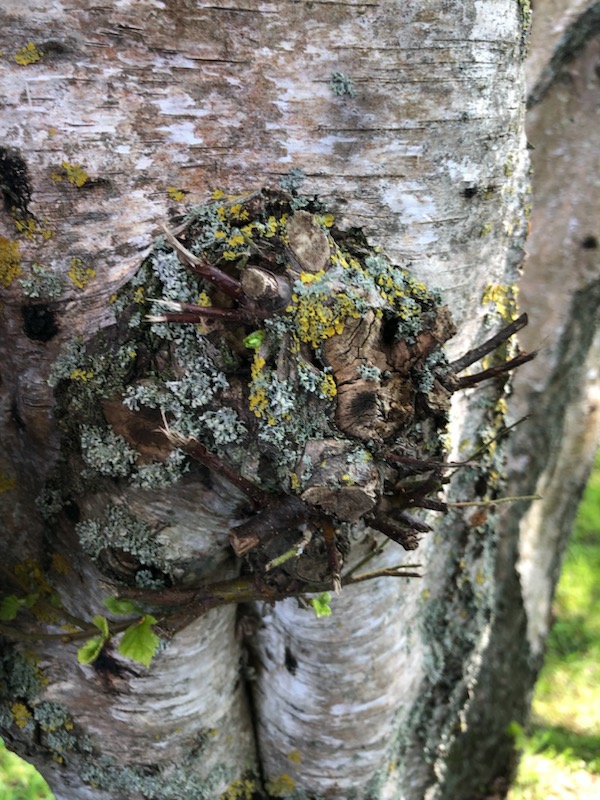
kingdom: Fungi
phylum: Ascomycota
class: Lecanoromycetes
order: Caliciales
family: Physciaceae
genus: Physcia
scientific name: Physcia tenella
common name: Spæd rosetlav
